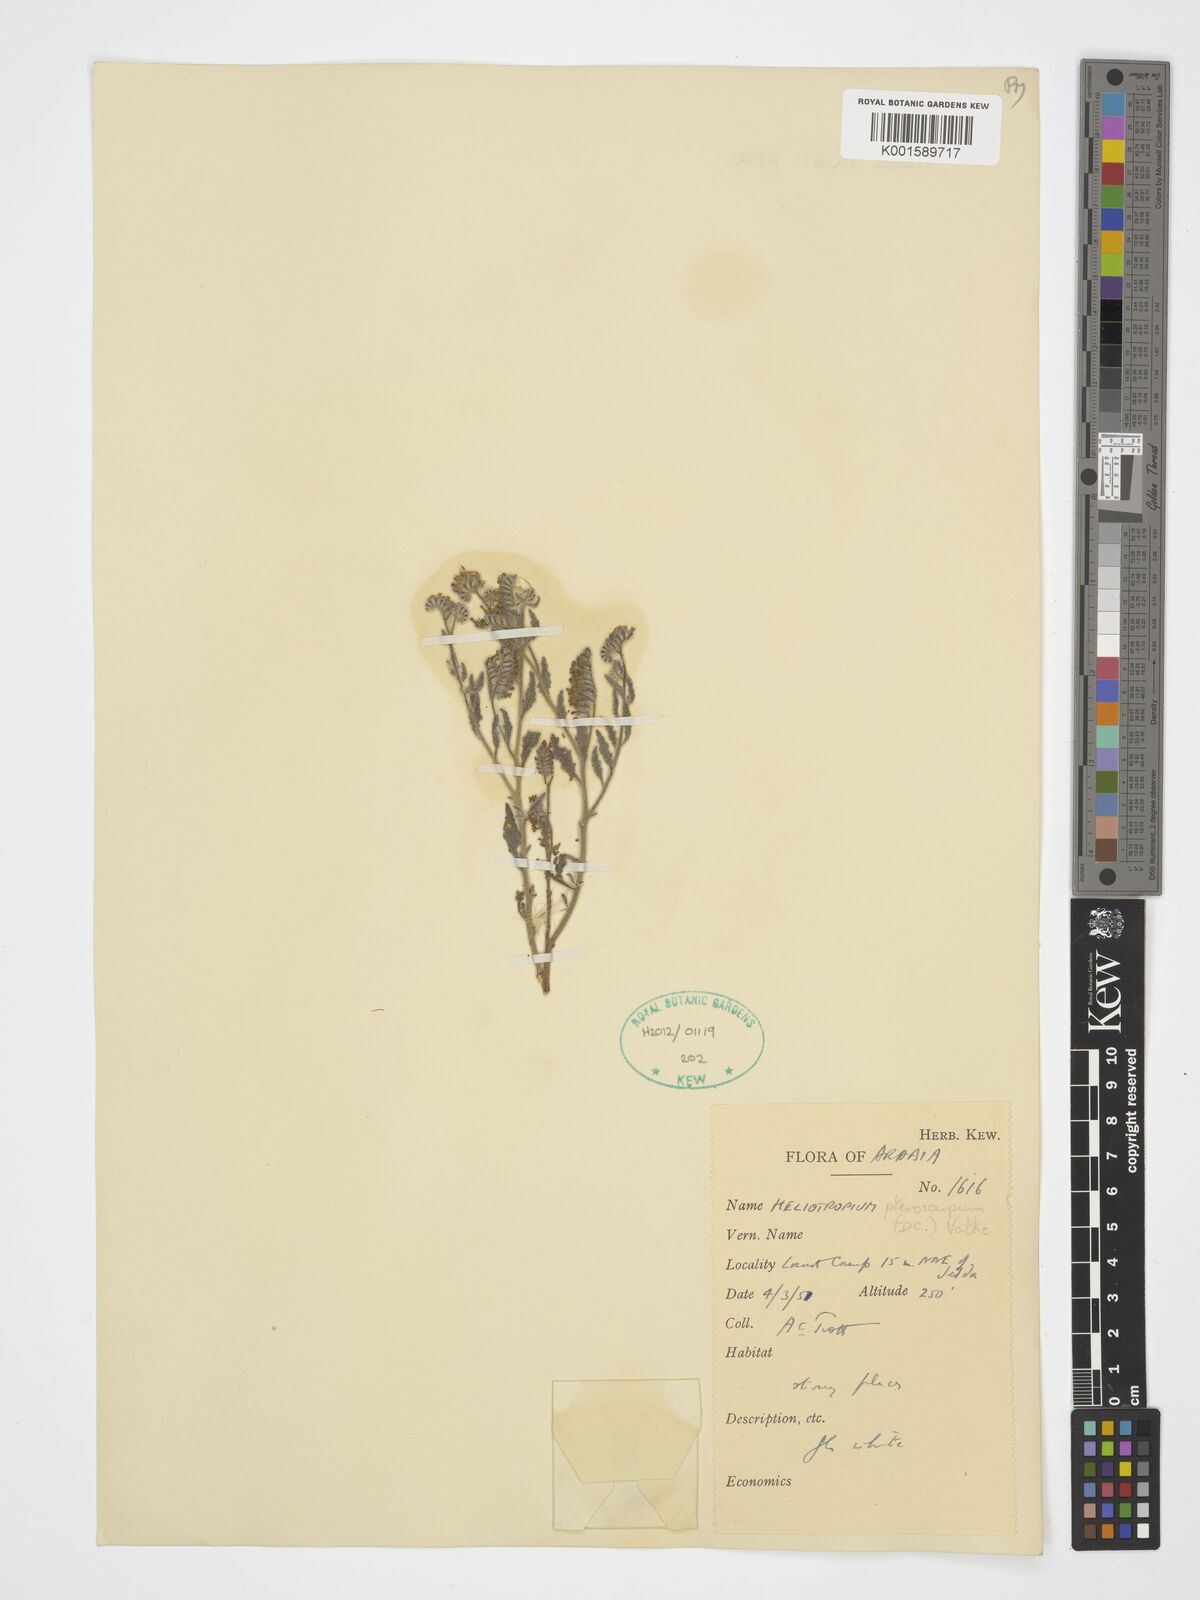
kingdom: Plantae
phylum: Tracheophyta
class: Magnoliopsida
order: Boraginales
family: Heliotropiaceae
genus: Heliotropium
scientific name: Heliotropium pterocarpum
